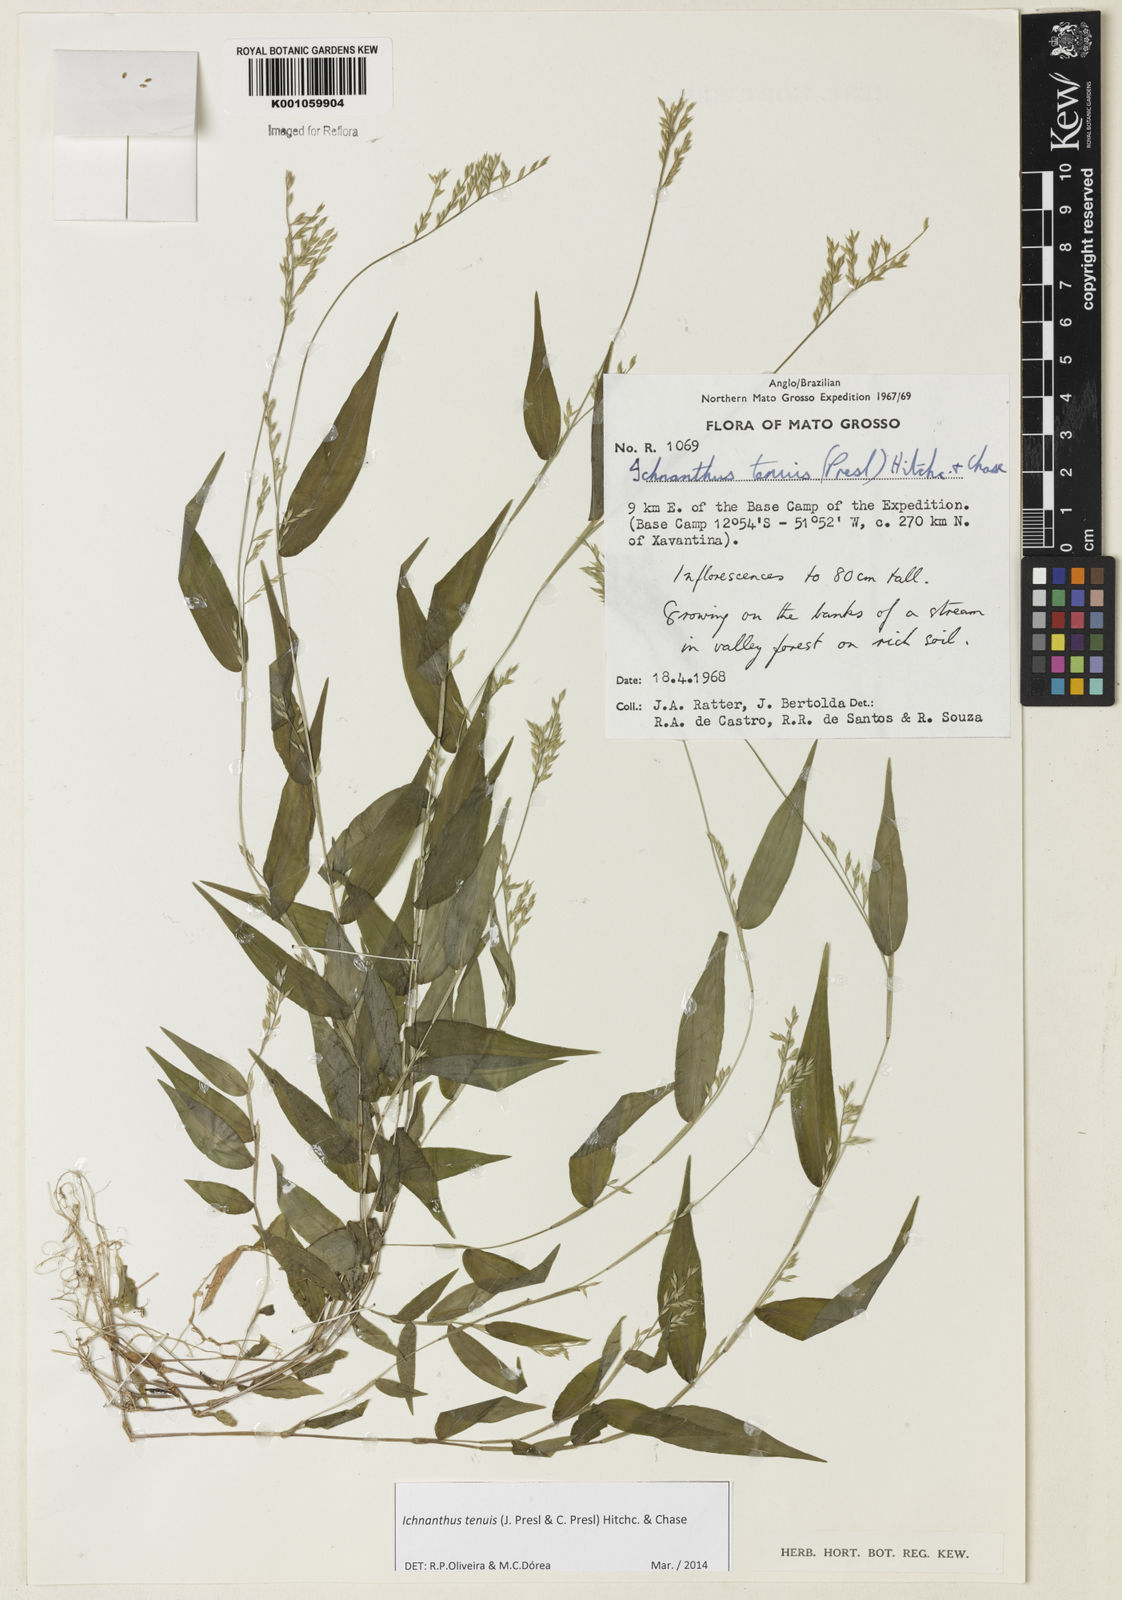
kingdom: Plantae
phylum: Tracheophyta
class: Liliopsida
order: Poales
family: Poaceae
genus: Ichnanthus
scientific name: Ichnanthus tenuis
